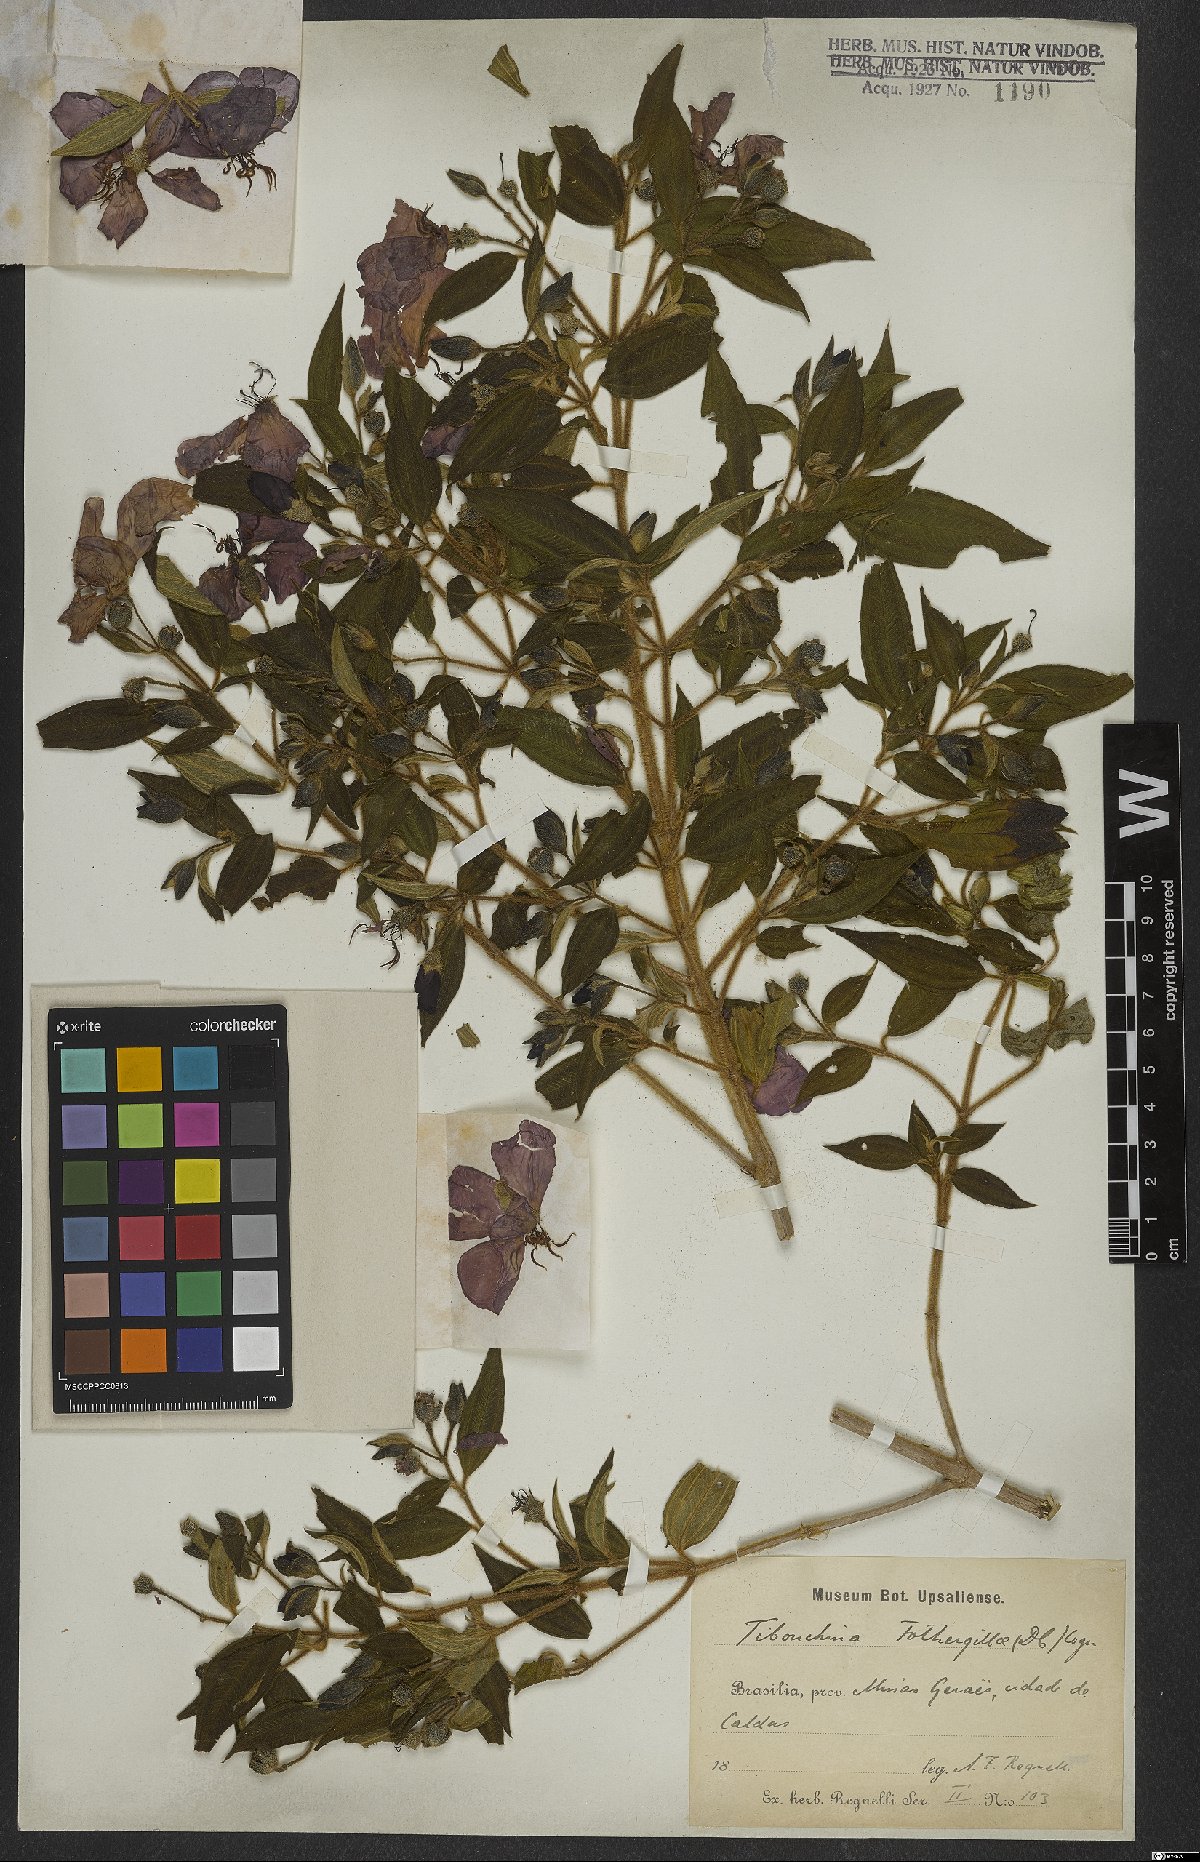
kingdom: Plantae
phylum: Tracheophyta
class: Magnoliopsida
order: Myrtales
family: Melastomataceae
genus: Pleroma
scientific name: Pleroma fothergillae
